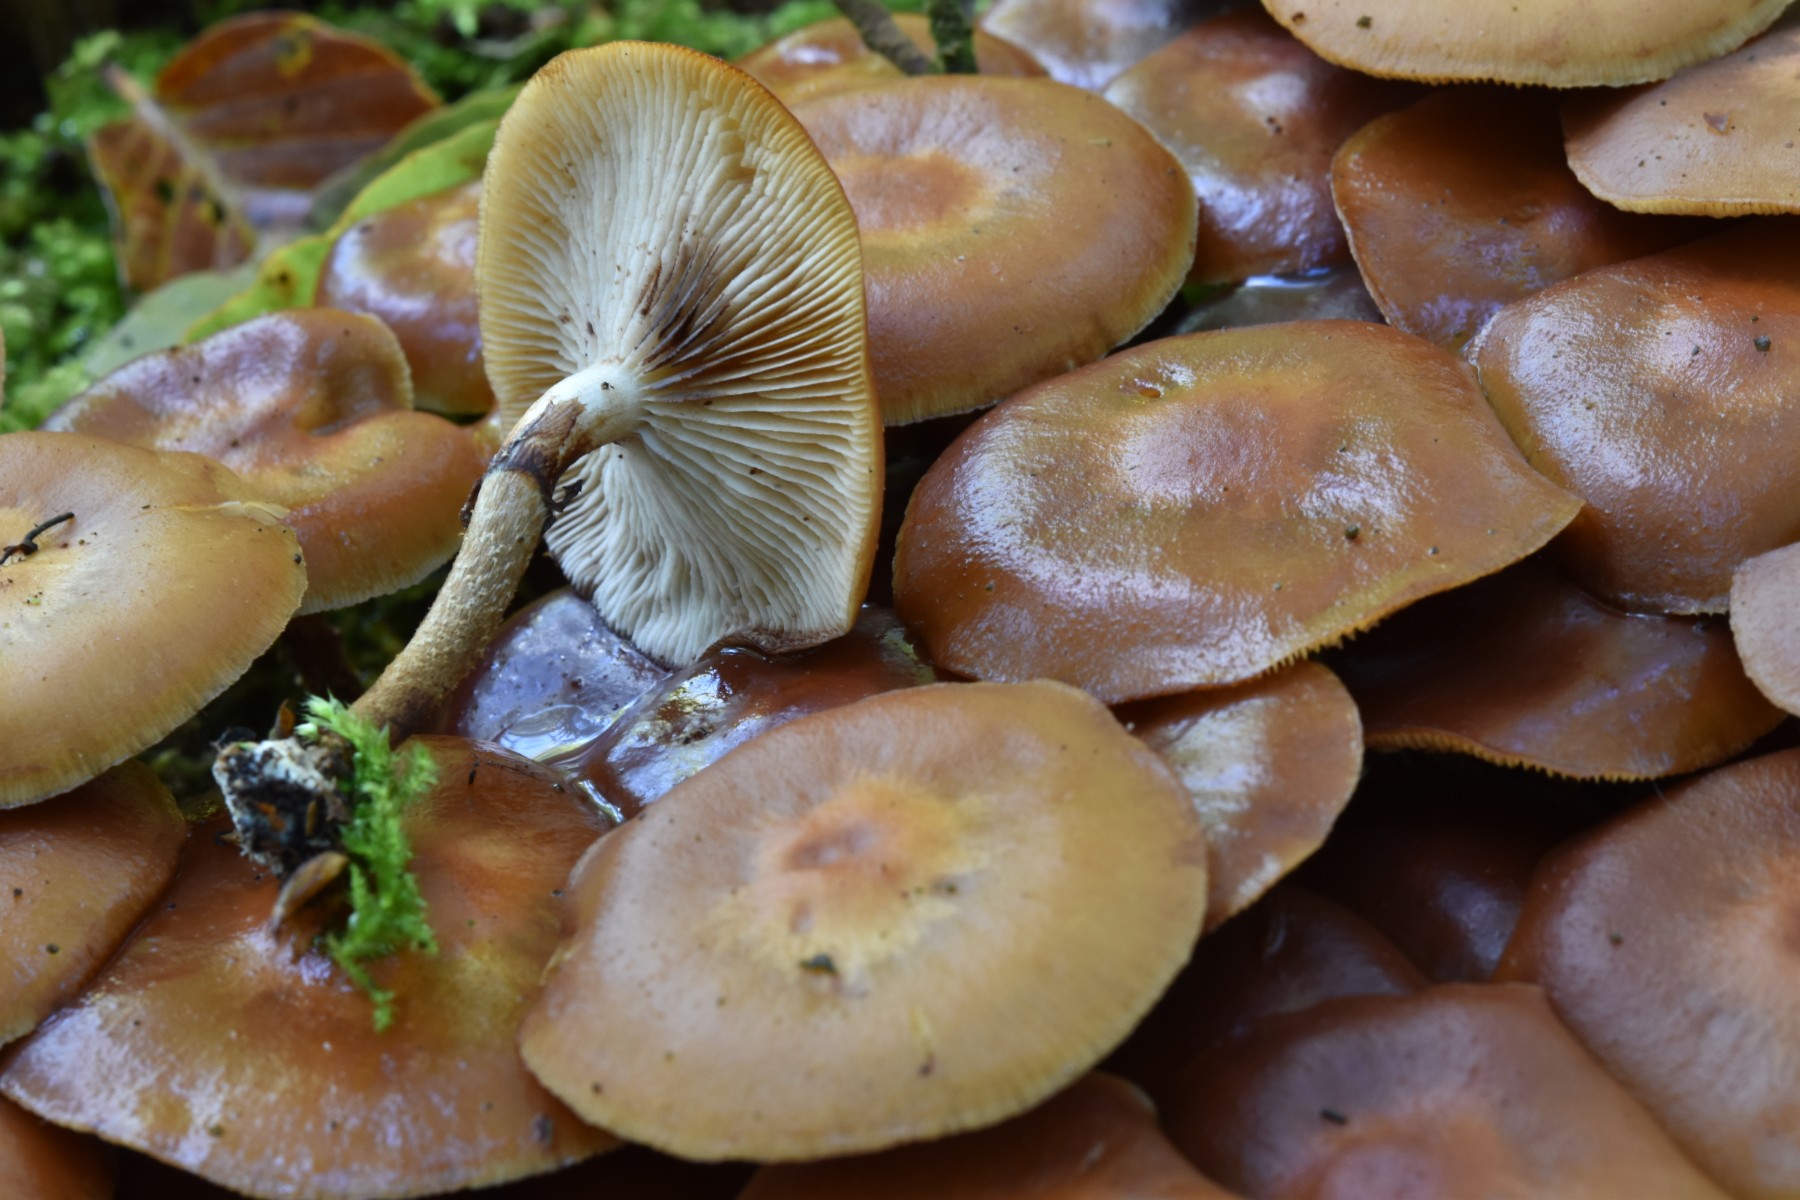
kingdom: Fungi
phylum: Basidiomycota
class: Agaricomycetes
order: Agaricales
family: Strophariaceae
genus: Kuehneromyces
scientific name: Kuehneromyces mutabilis
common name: foranderlig skælhat
